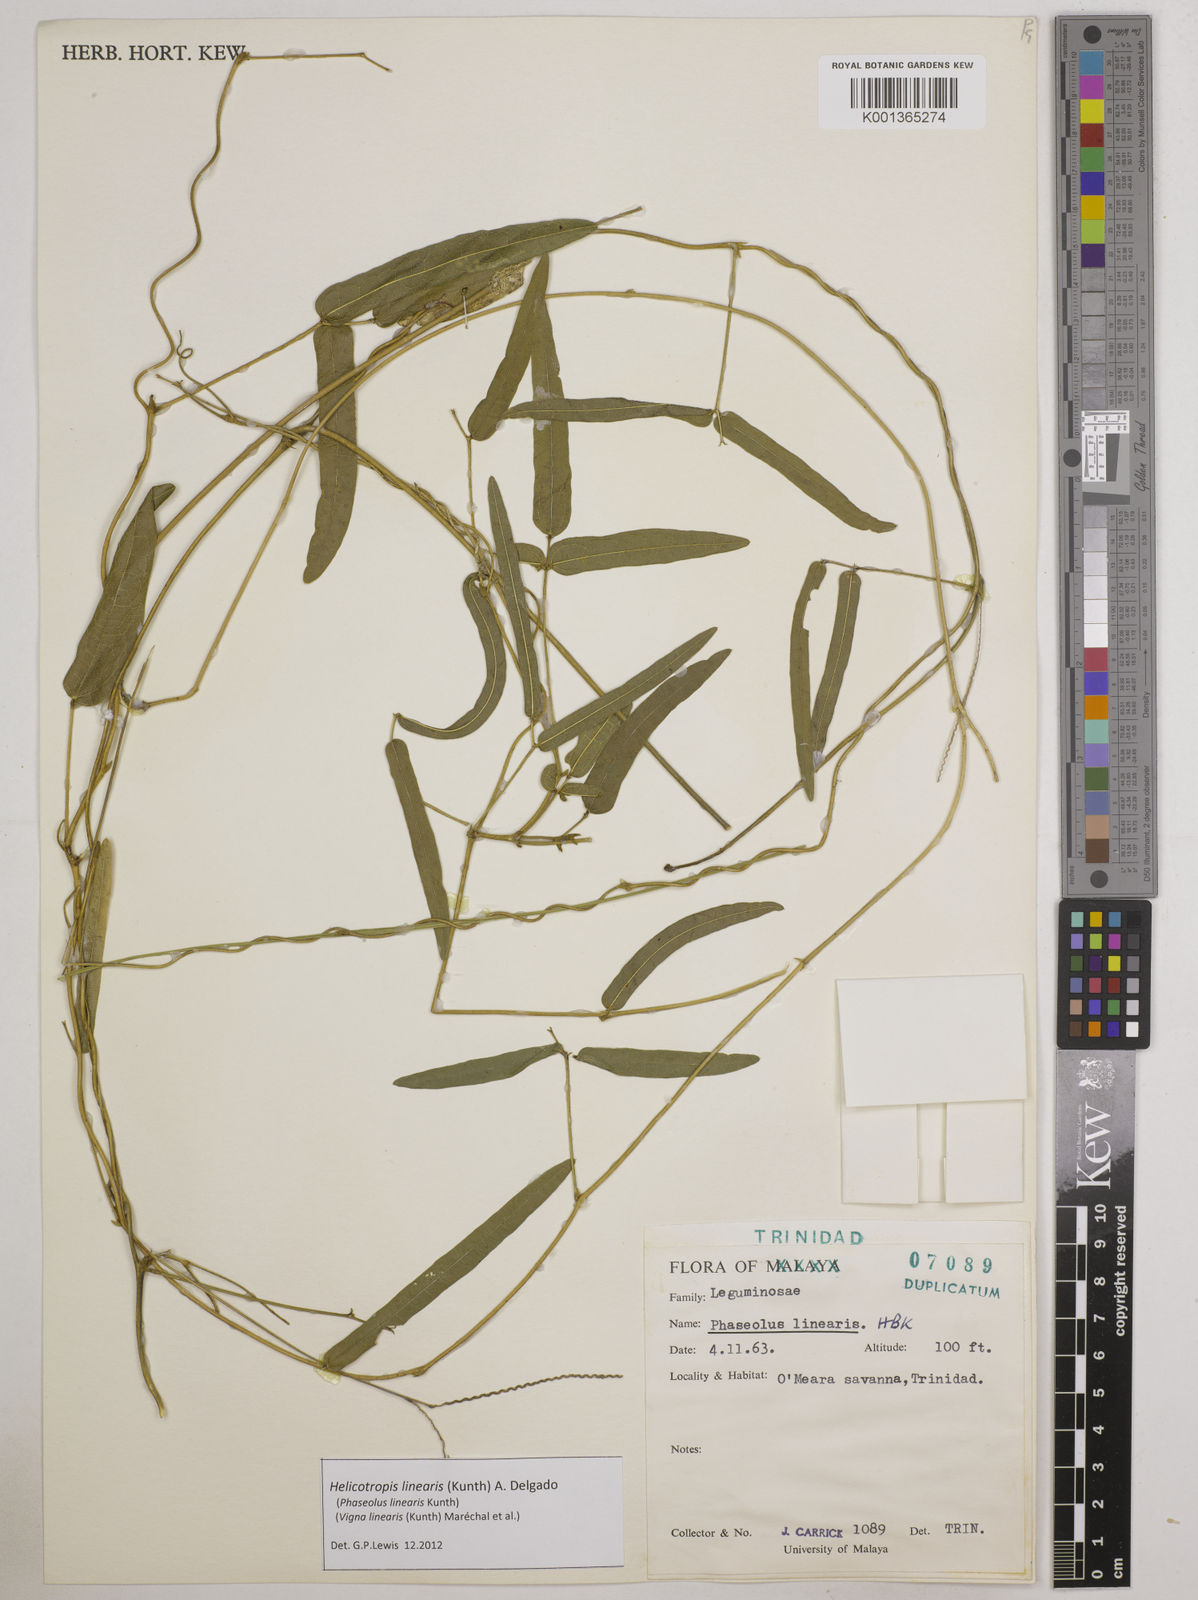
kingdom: Plantae
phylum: Tracheophyta
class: Magnoliopsida
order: Fabales
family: Fabaceae
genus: Helicotropis
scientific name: Helicotropis linearis
